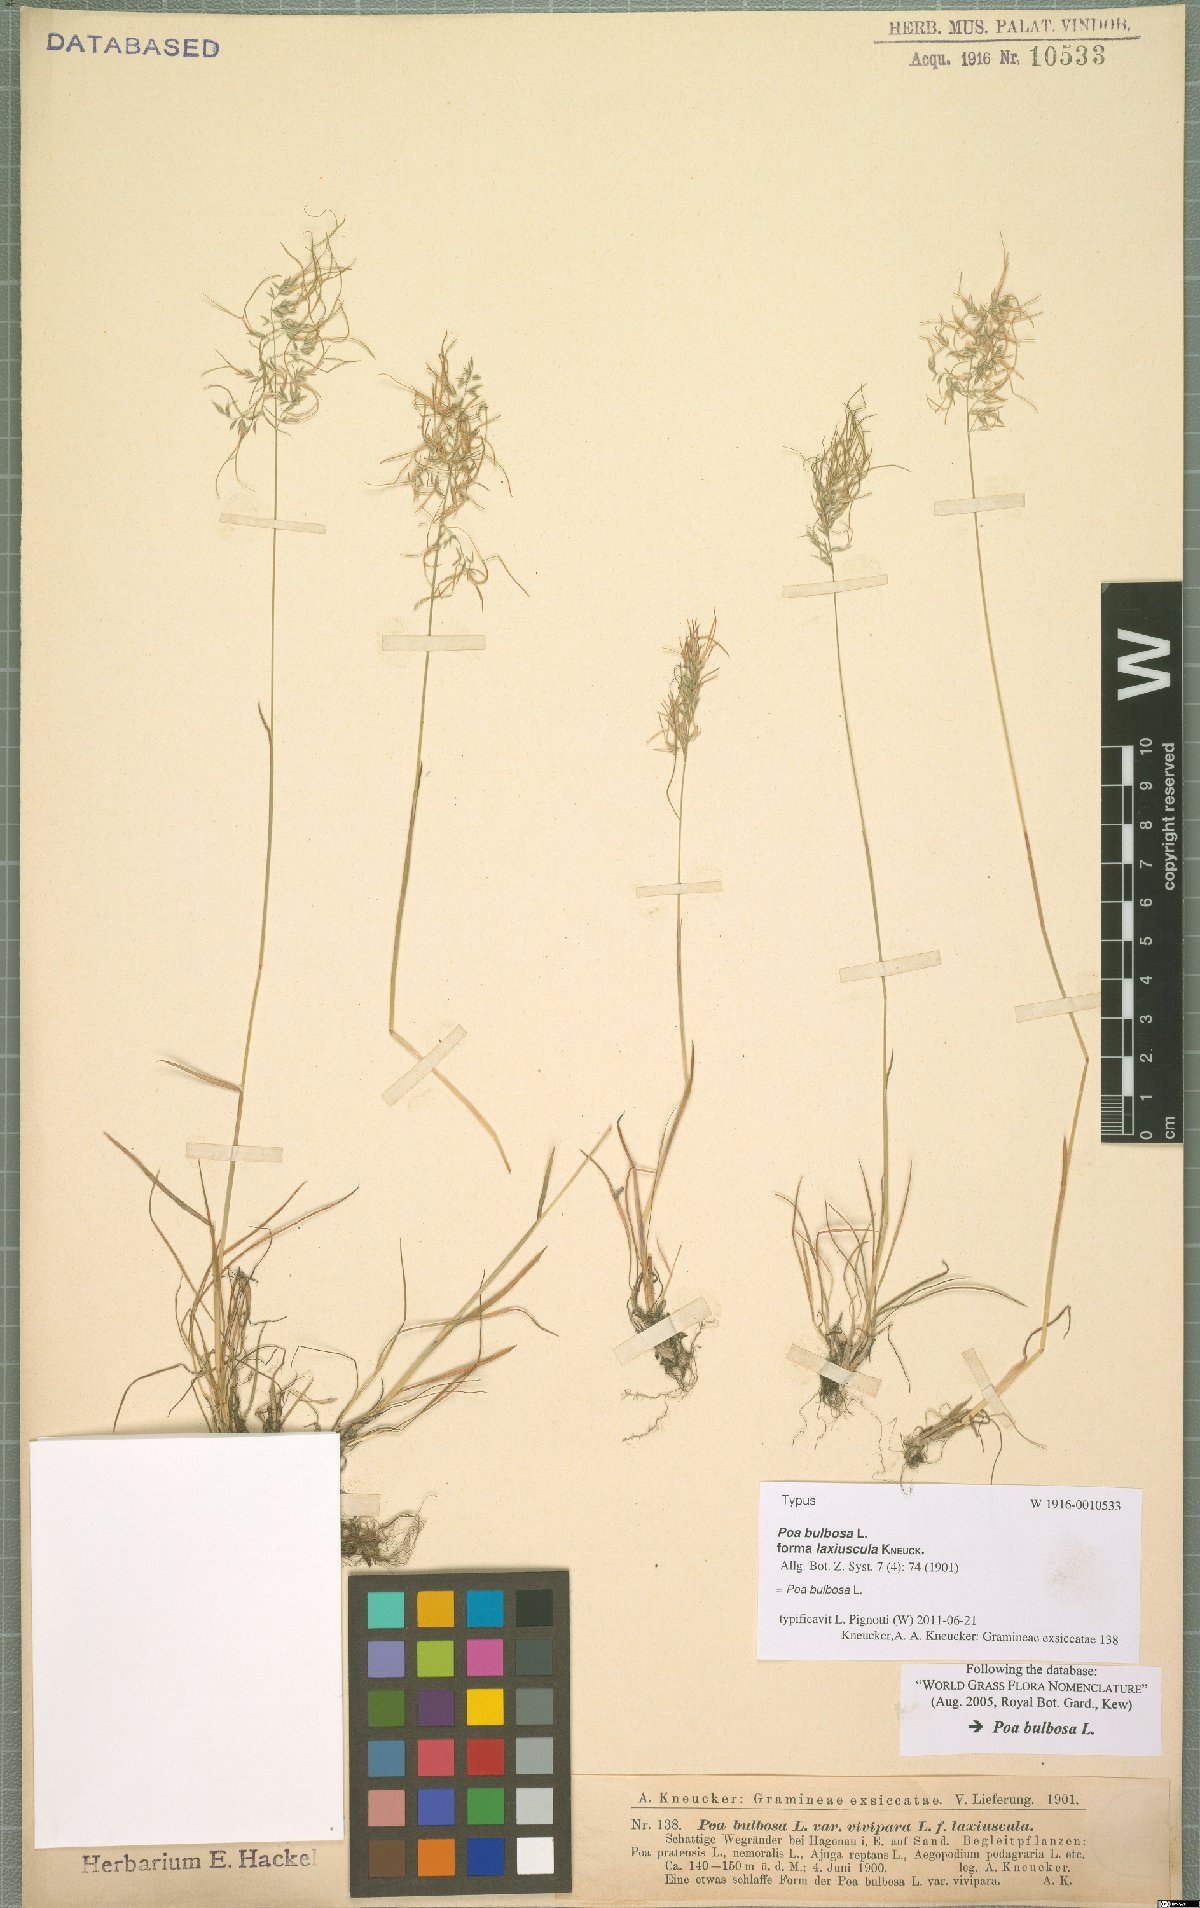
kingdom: Plantae
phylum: Tracheophyta
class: Liliopsida
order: Poales
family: Poaceae
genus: Poa
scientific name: Poa bulbosa
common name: Bulbous bluegrass
